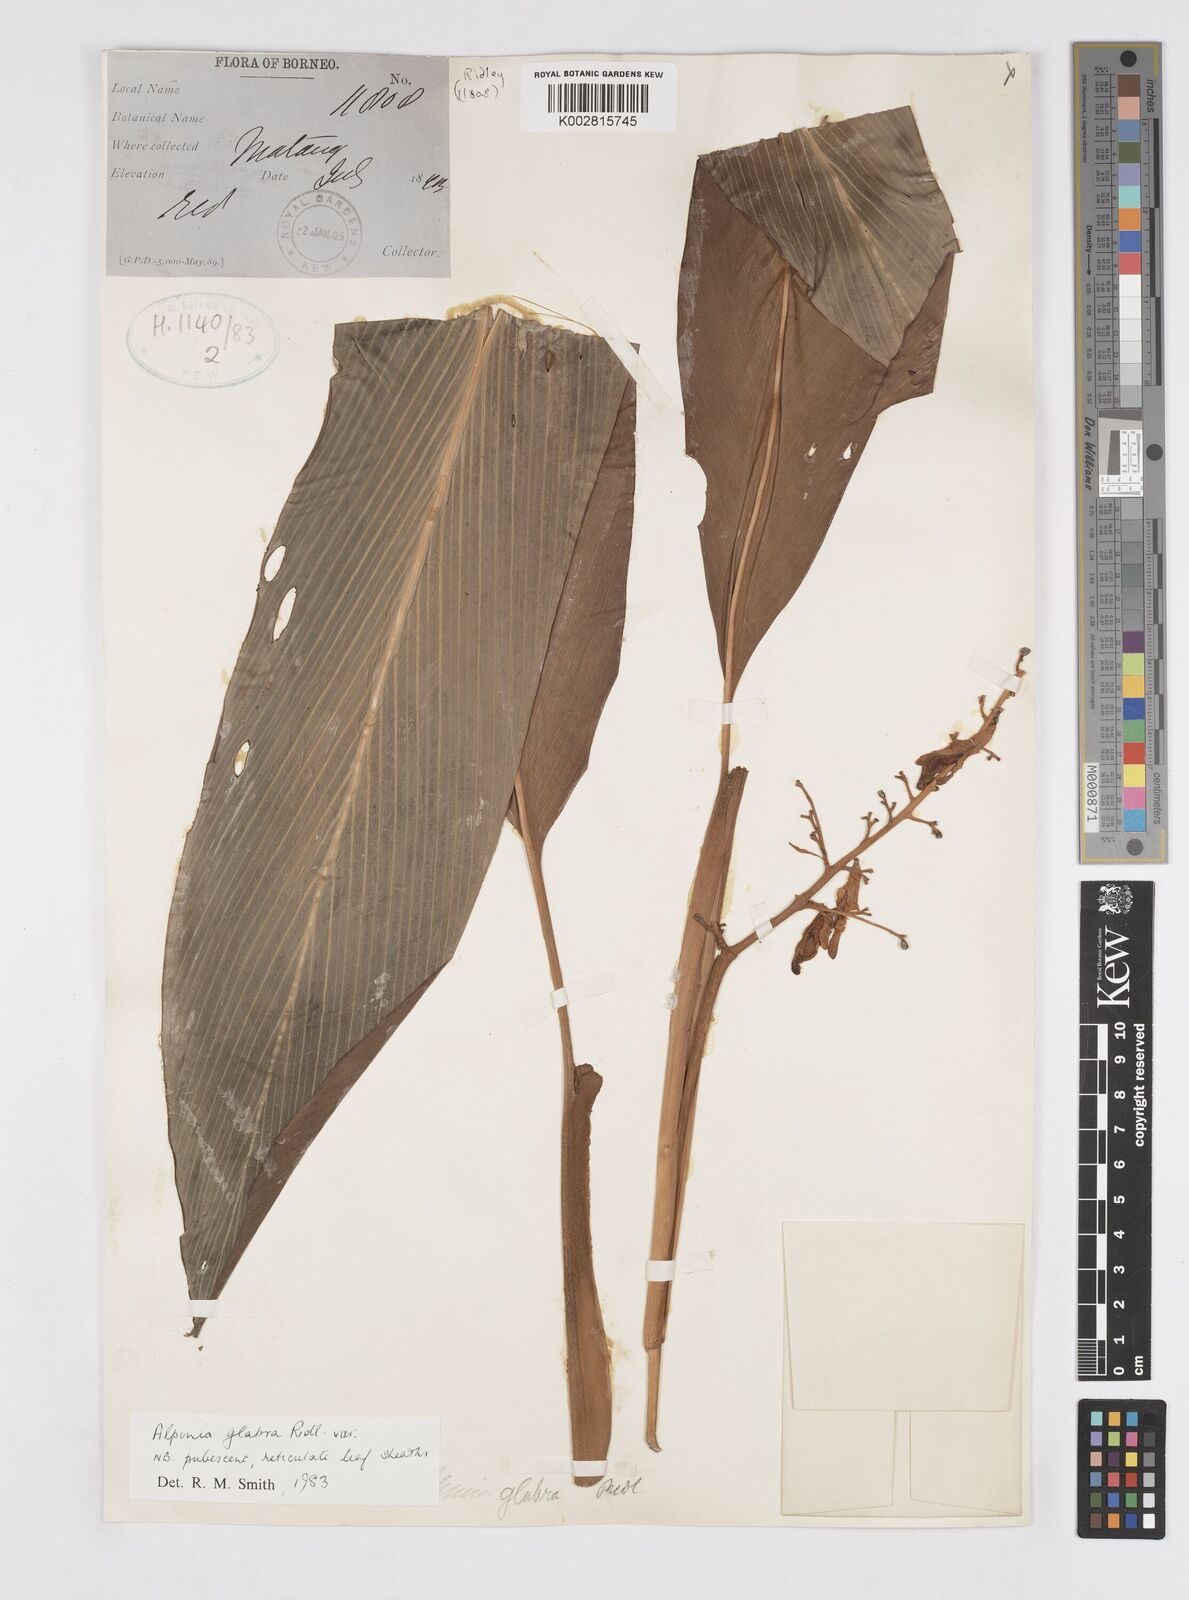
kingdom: Plantae
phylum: Tracheophyta
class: Liliopsida
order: Zingiberales
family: Zingiberaceae
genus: Alpinia
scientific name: Alpinia glabra
